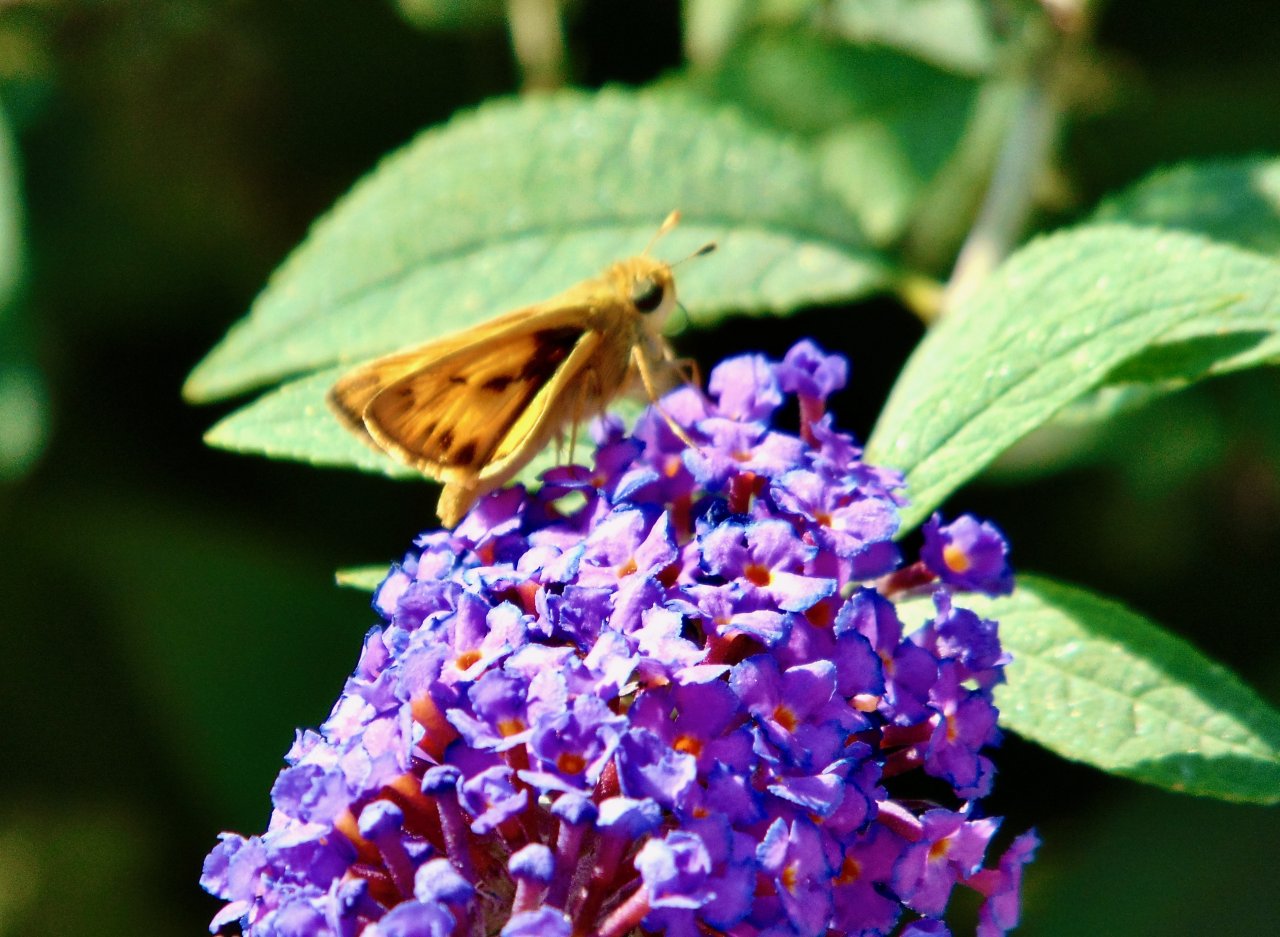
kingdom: Animalia
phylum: Arthropoda
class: Insecta
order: Lepidoptera
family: Hesperiidae
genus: Hylephila
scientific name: Hylephila phyleus
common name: Fiery Skipper
